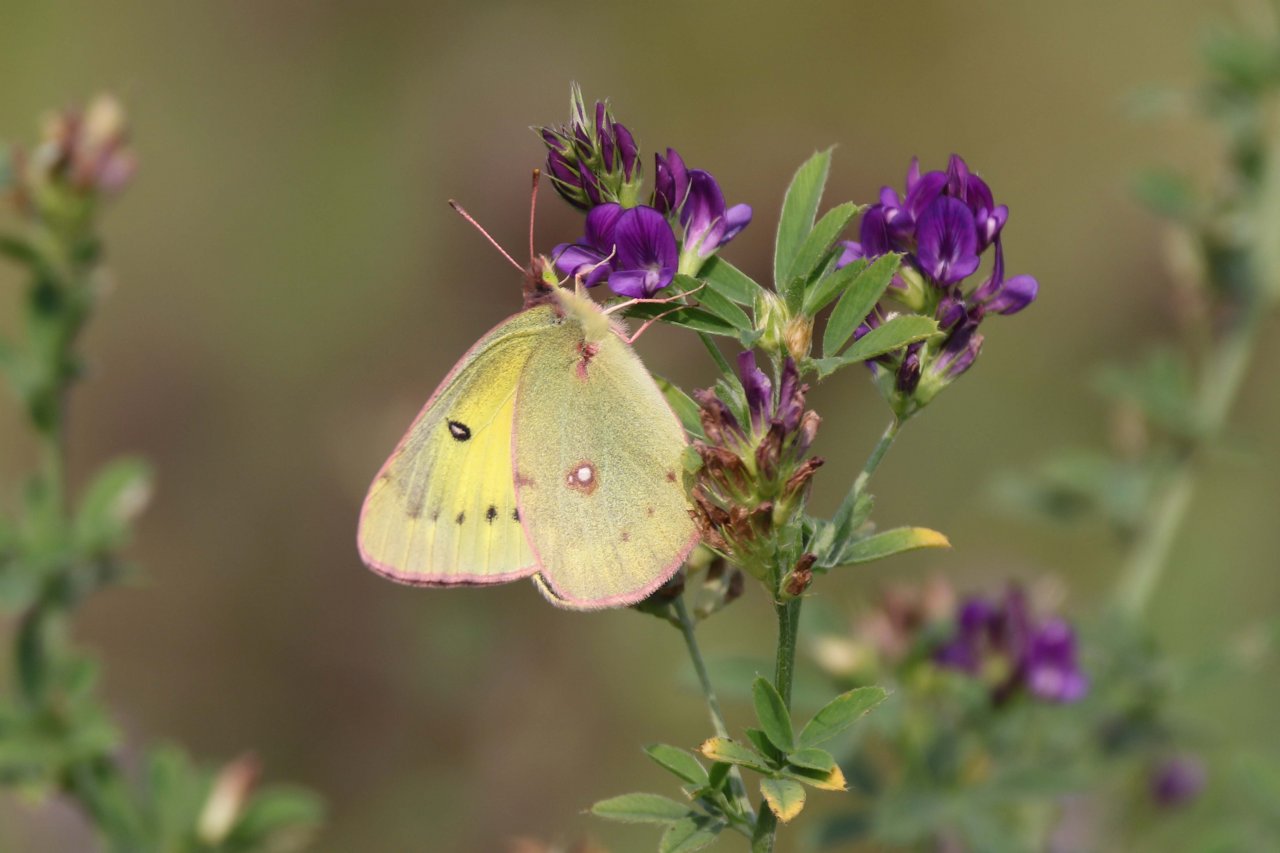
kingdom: Animalia
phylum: Arthropoda
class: Insecta
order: Lepidoptera
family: Pieridae
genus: Colias
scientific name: Colias philodice
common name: Clouded Sulphur
